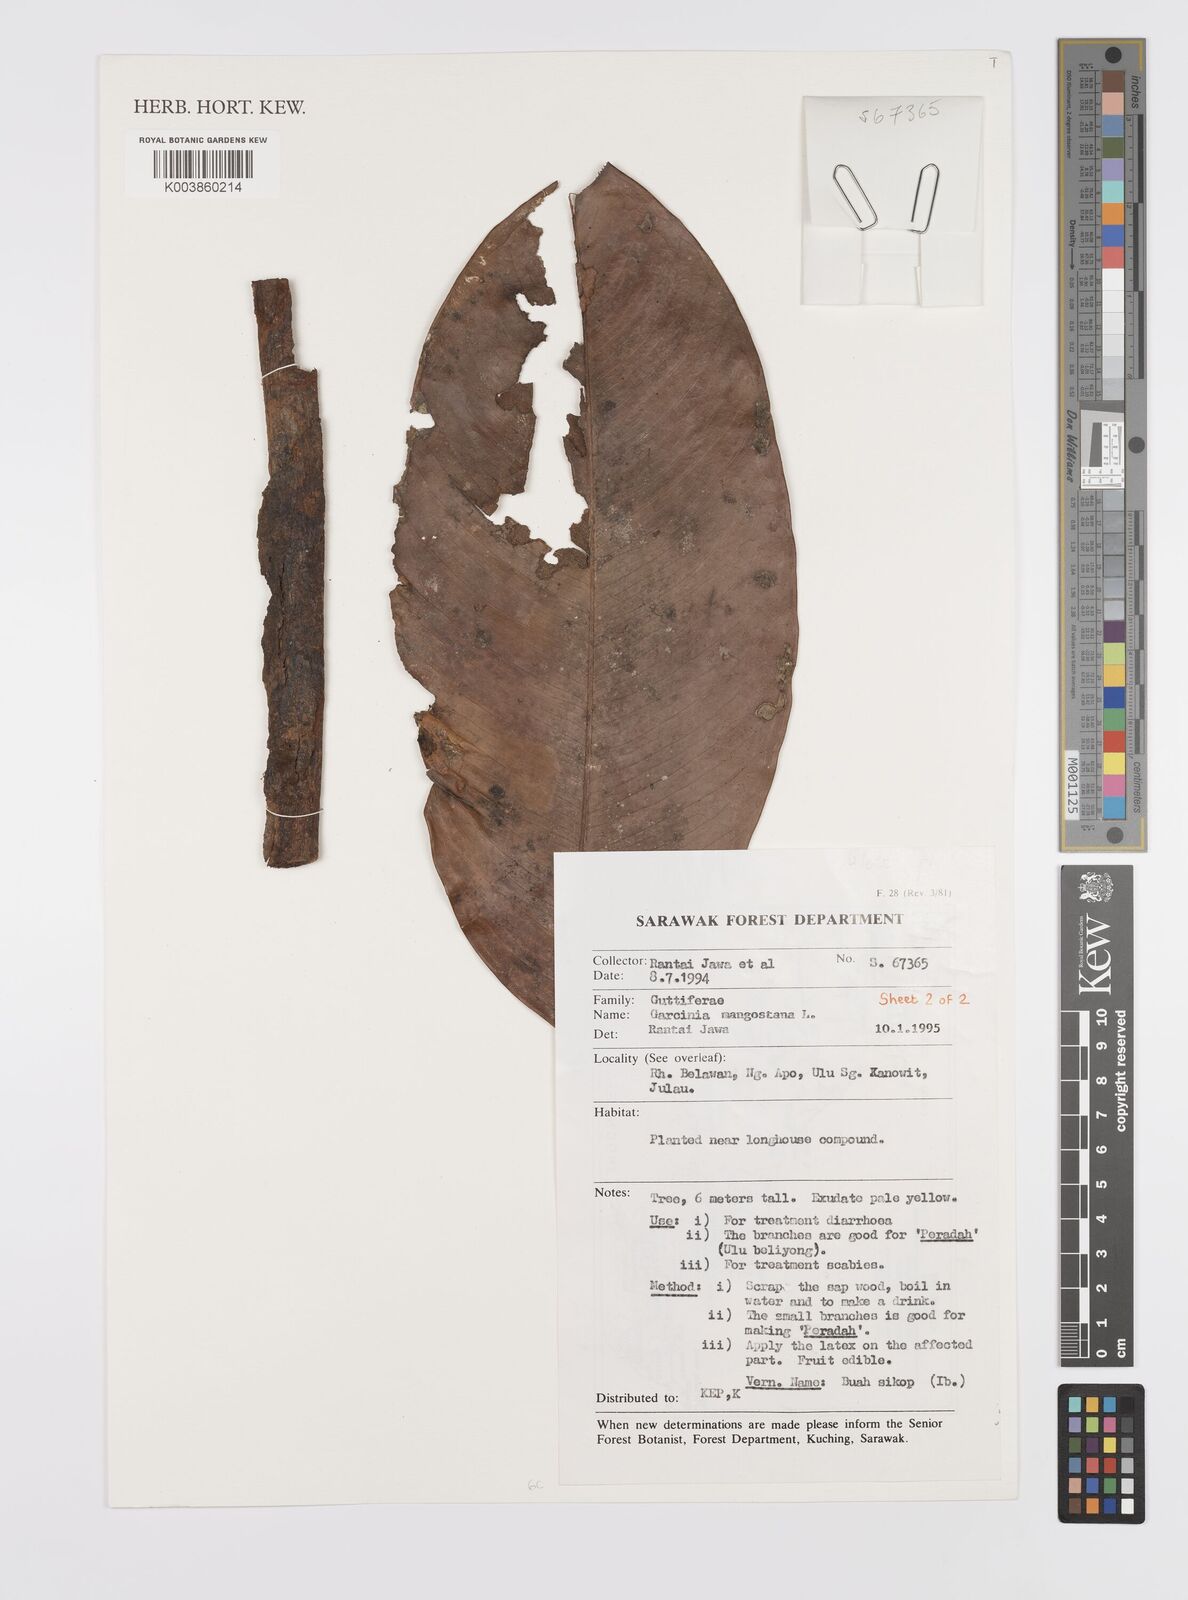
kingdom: Plantae
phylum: Tracheophyta
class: Magnoliopsida
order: Malpighiales
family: Clusiaceae
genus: Garcinia
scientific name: Garcinia mangostana
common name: Mangosteen
